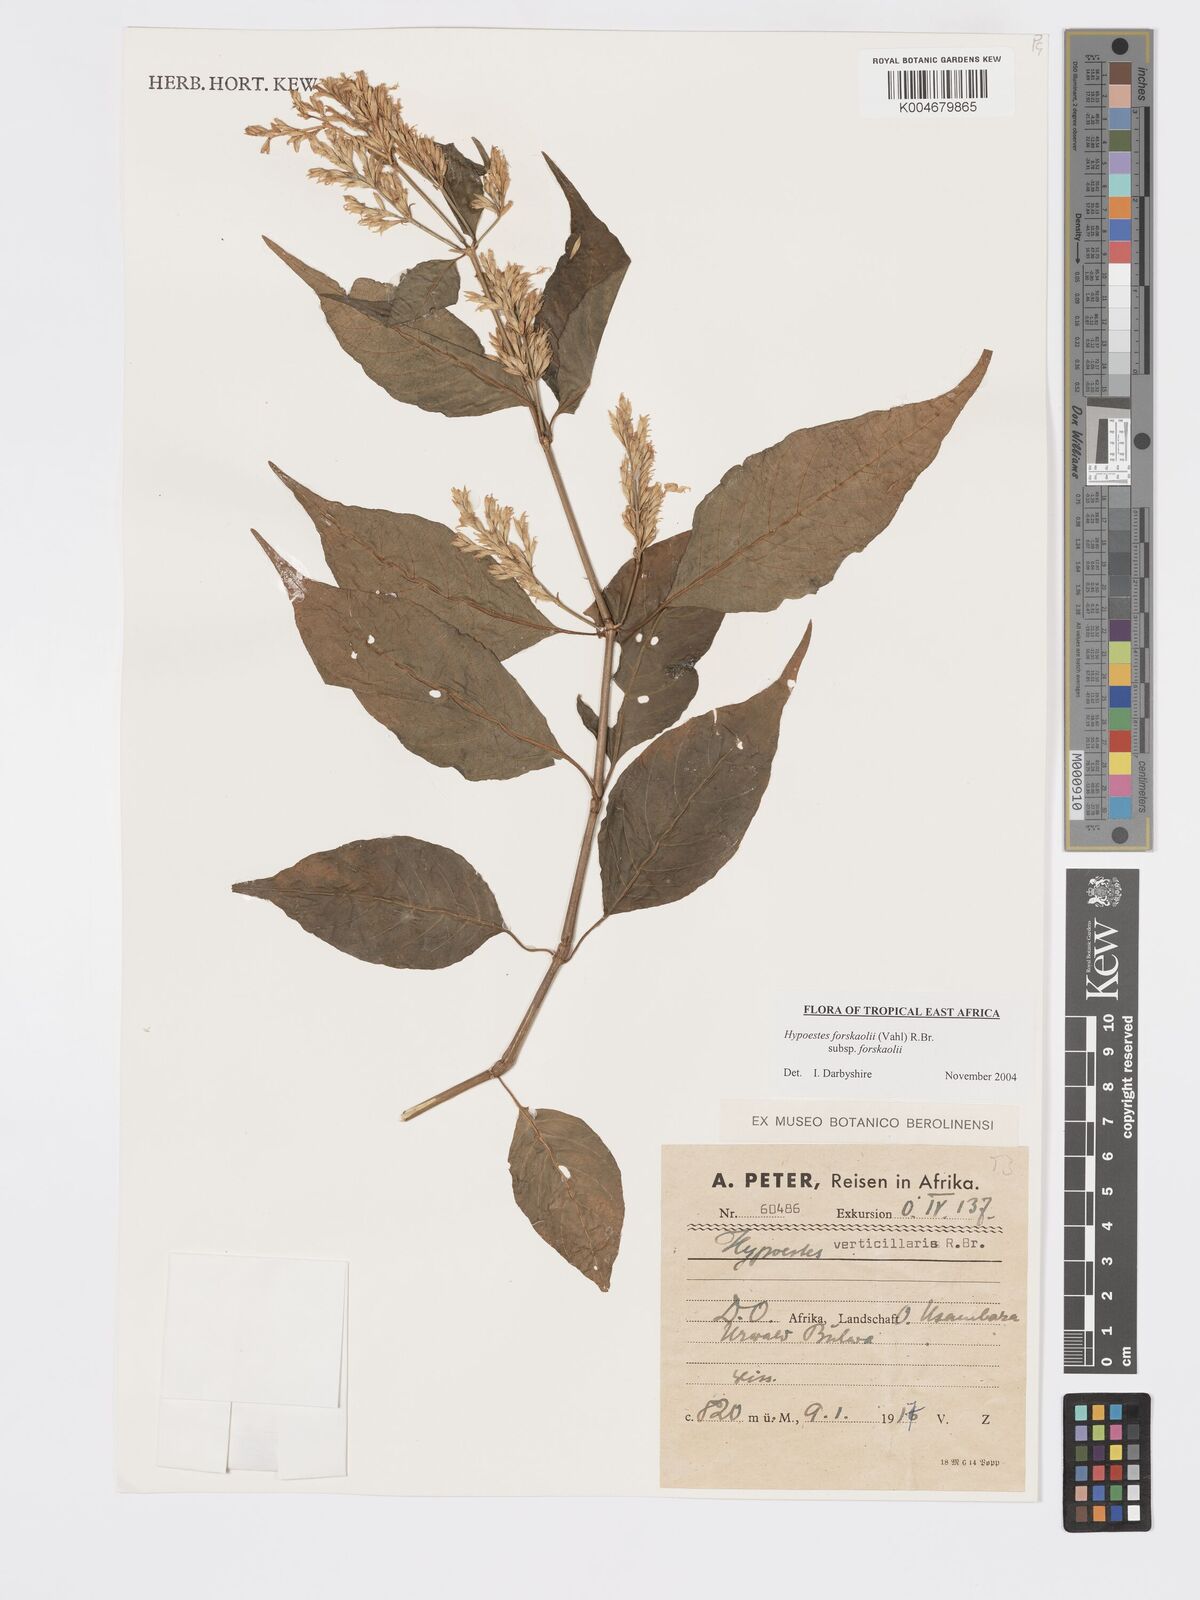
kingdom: Plantae
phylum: Tracheophyta
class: Magnoliopsida
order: Lamiales
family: Acanthaceae
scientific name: Acanthaceae
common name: Acanthaceae
